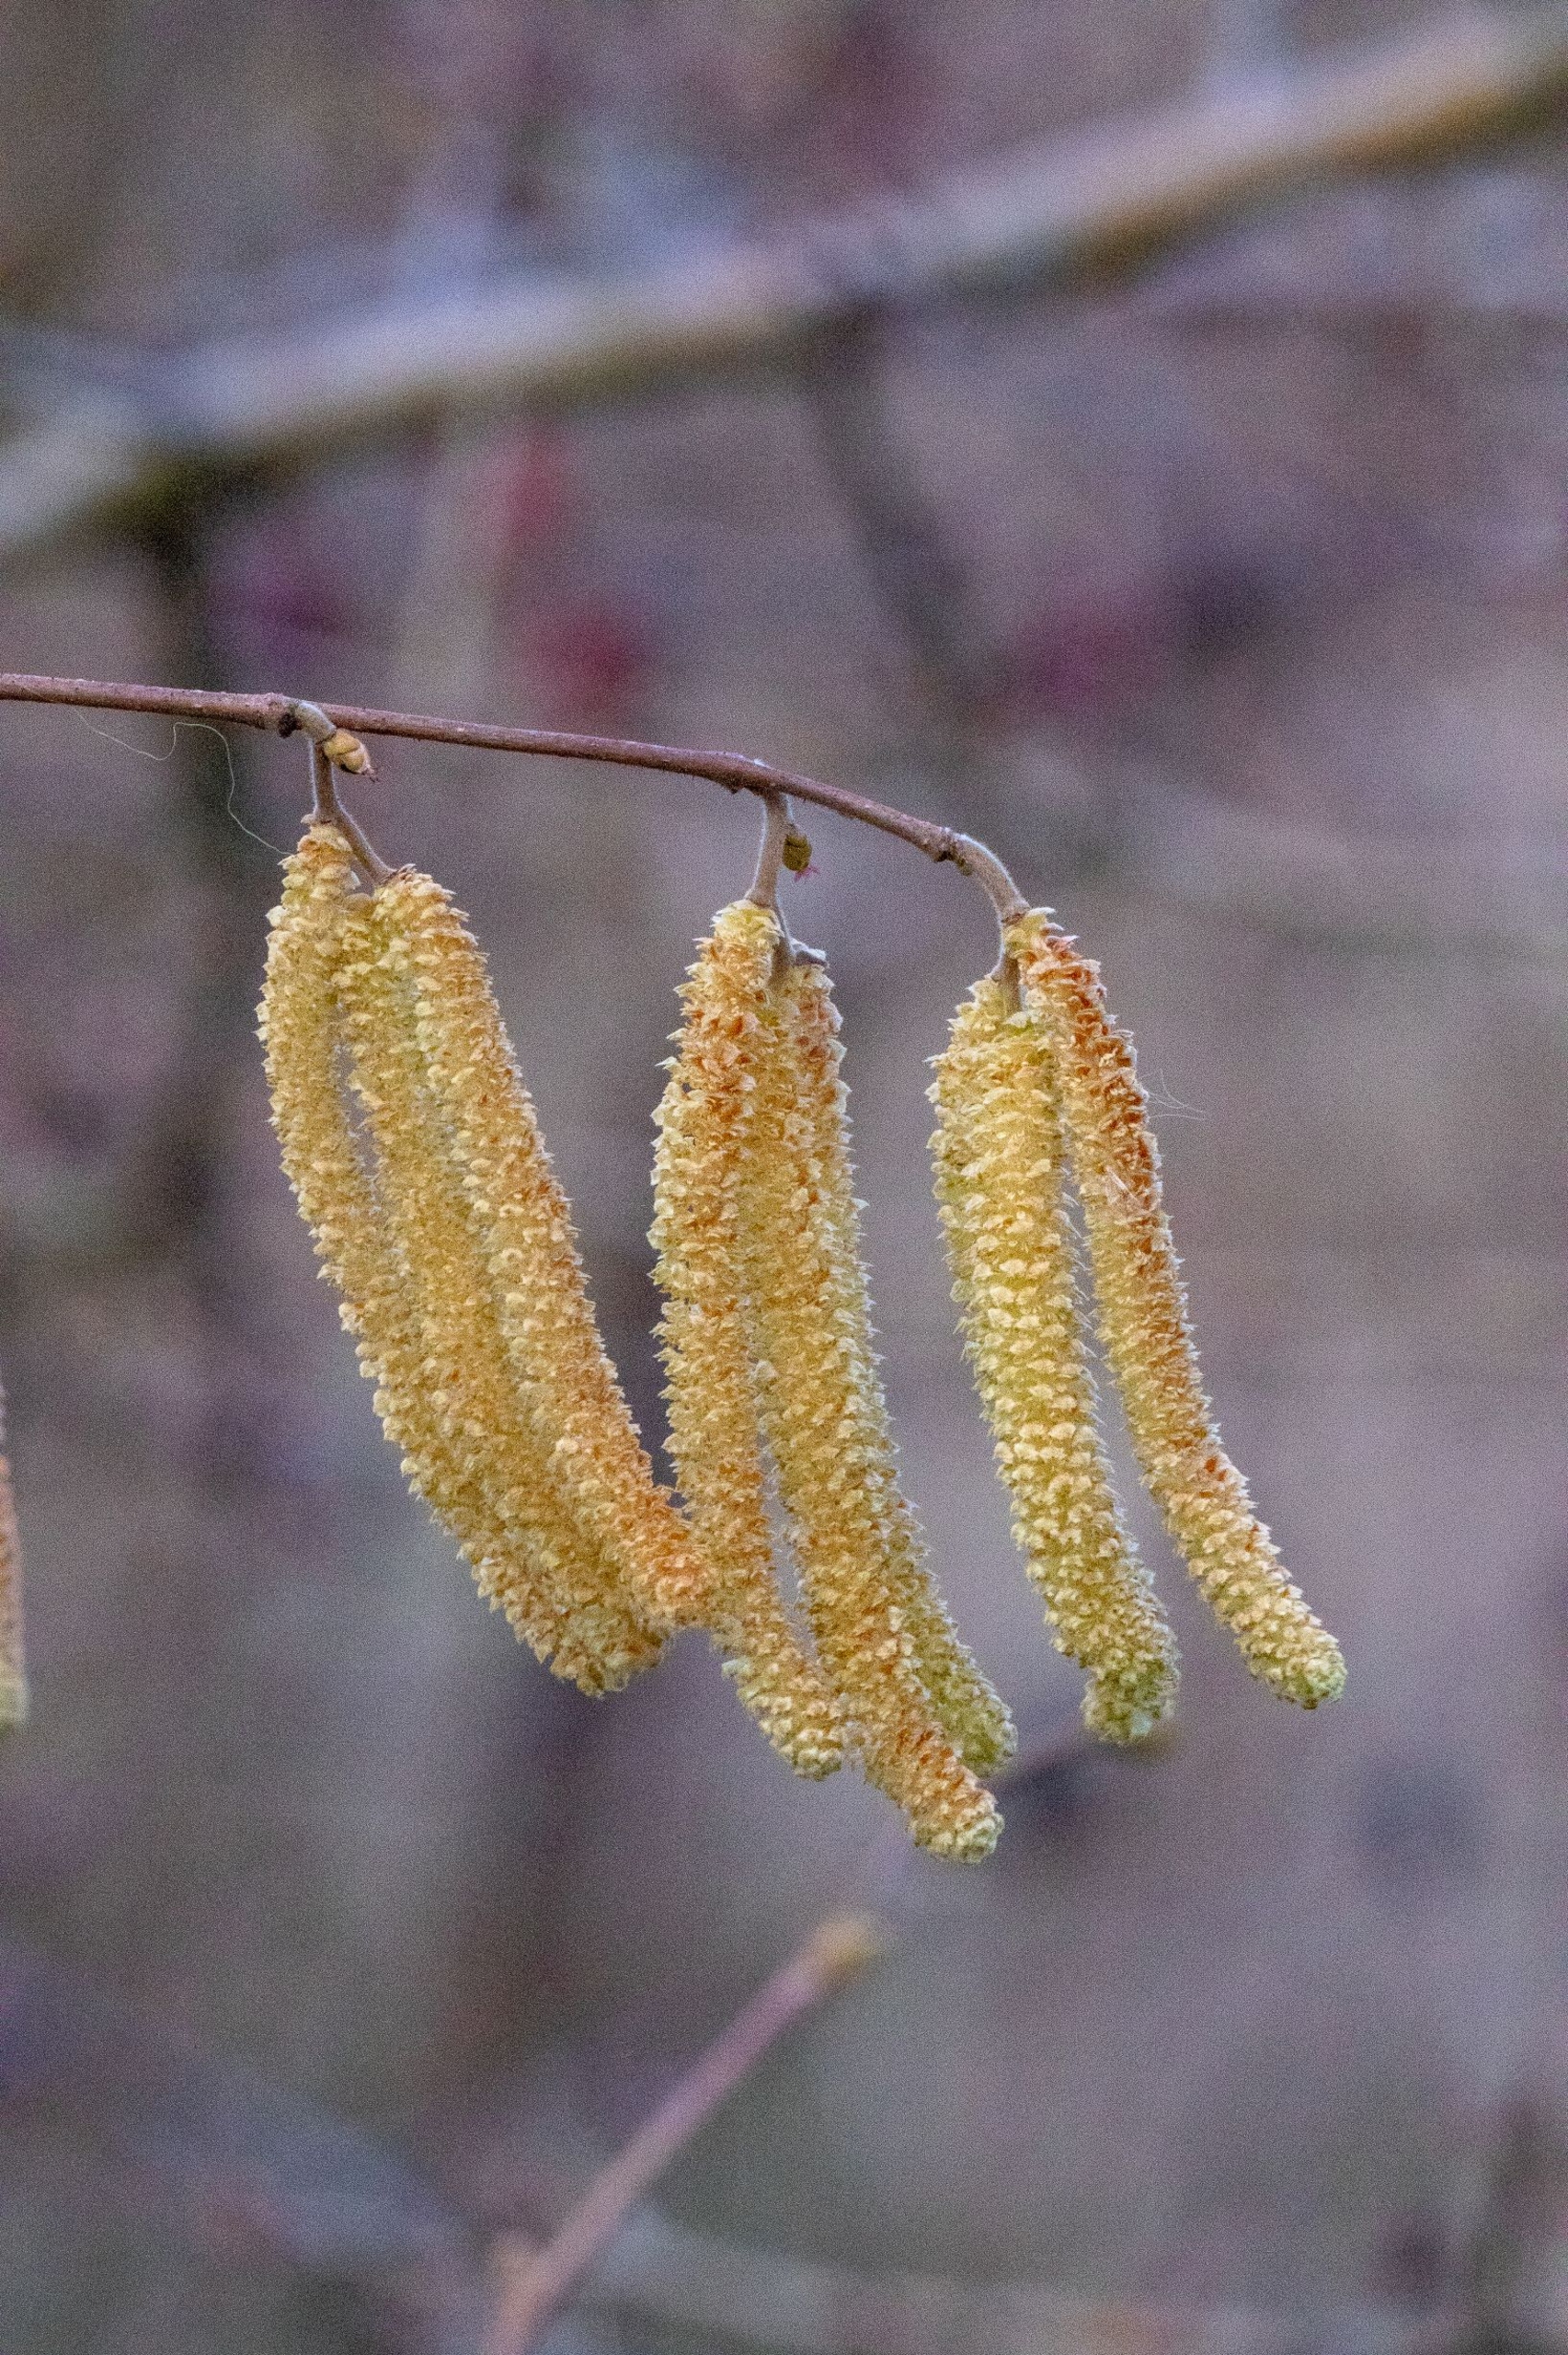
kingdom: Plantae
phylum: Tracheophyta
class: Magnoliopsida
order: Fagales
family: Betulaceae
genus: Corylus
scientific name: Corylus avellana
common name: Hassel
